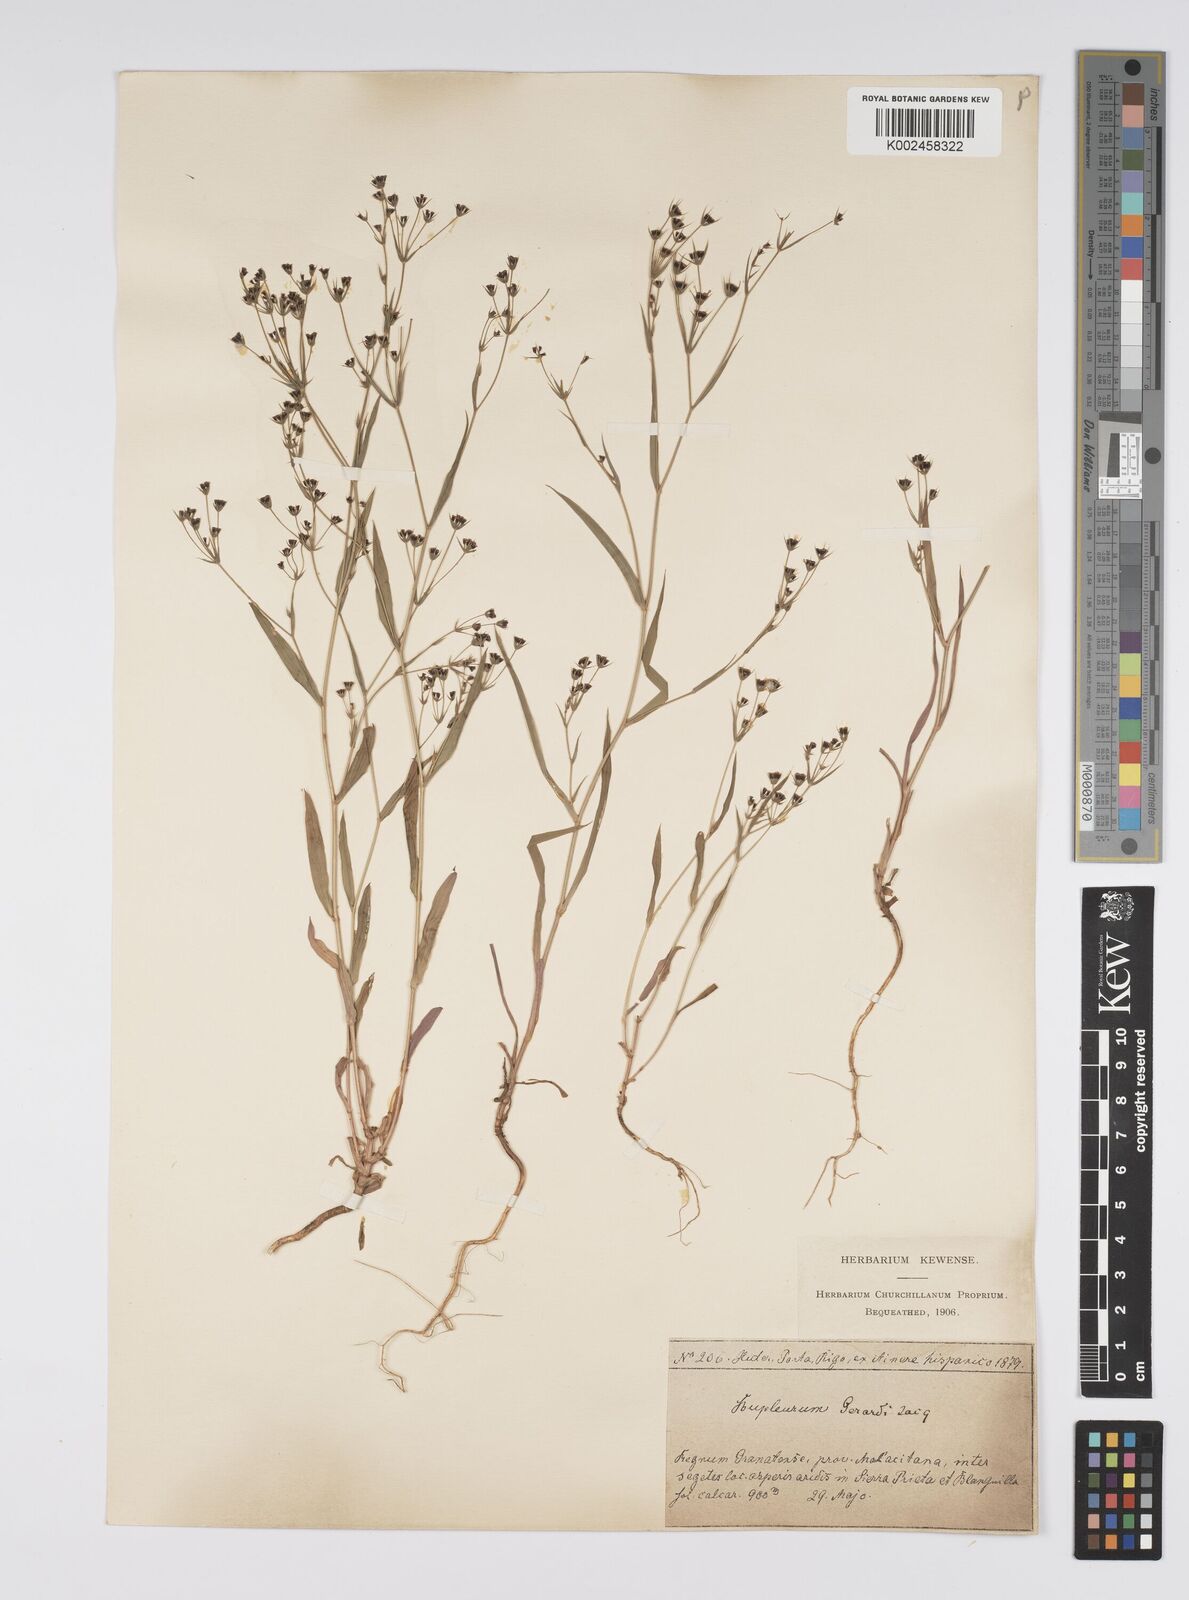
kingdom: Plantae
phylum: Tracheophyta
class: Magnoliopsida
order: Apiales
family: Apiaceae
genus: Bupleurum
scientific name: Bupleurum gerardi
